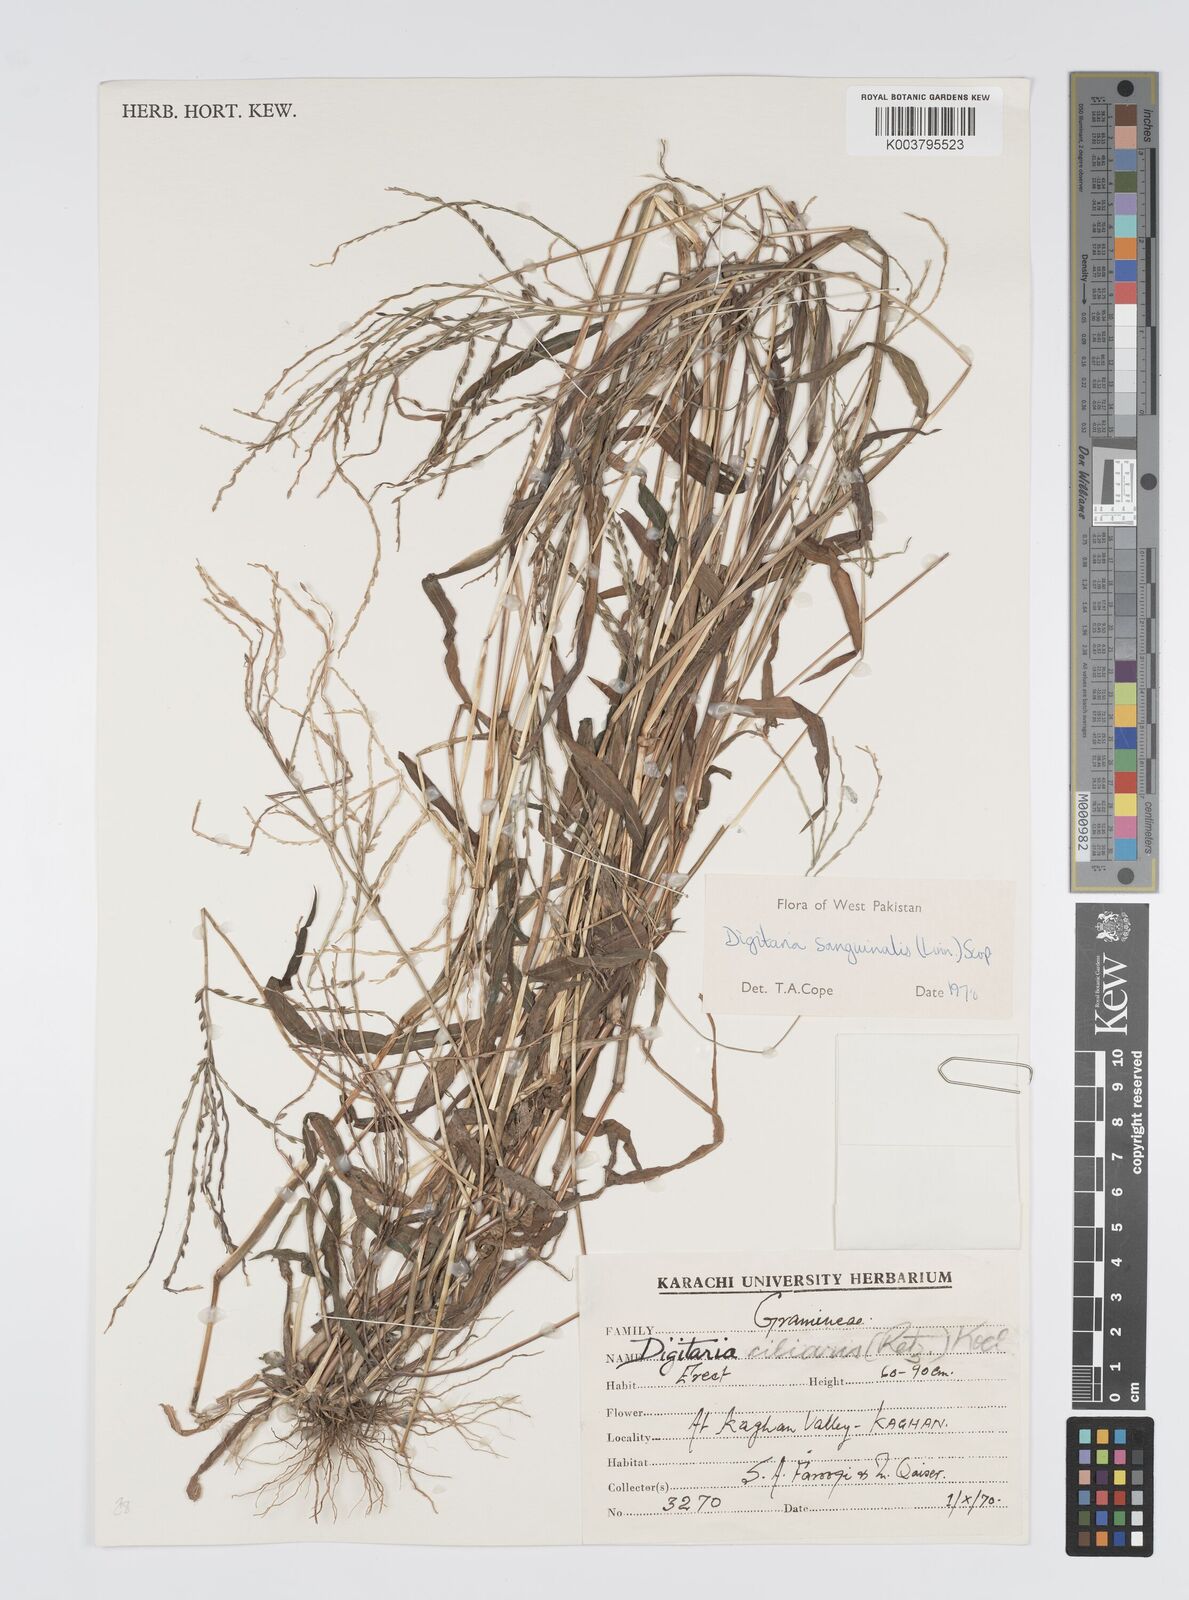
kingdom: Plantae
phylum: Tracheophyta
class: Liliopsida
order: Poales
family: Poaceae
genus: Digitaria
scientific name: Digitaria sanguinalis
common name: Hairy crabgrass
